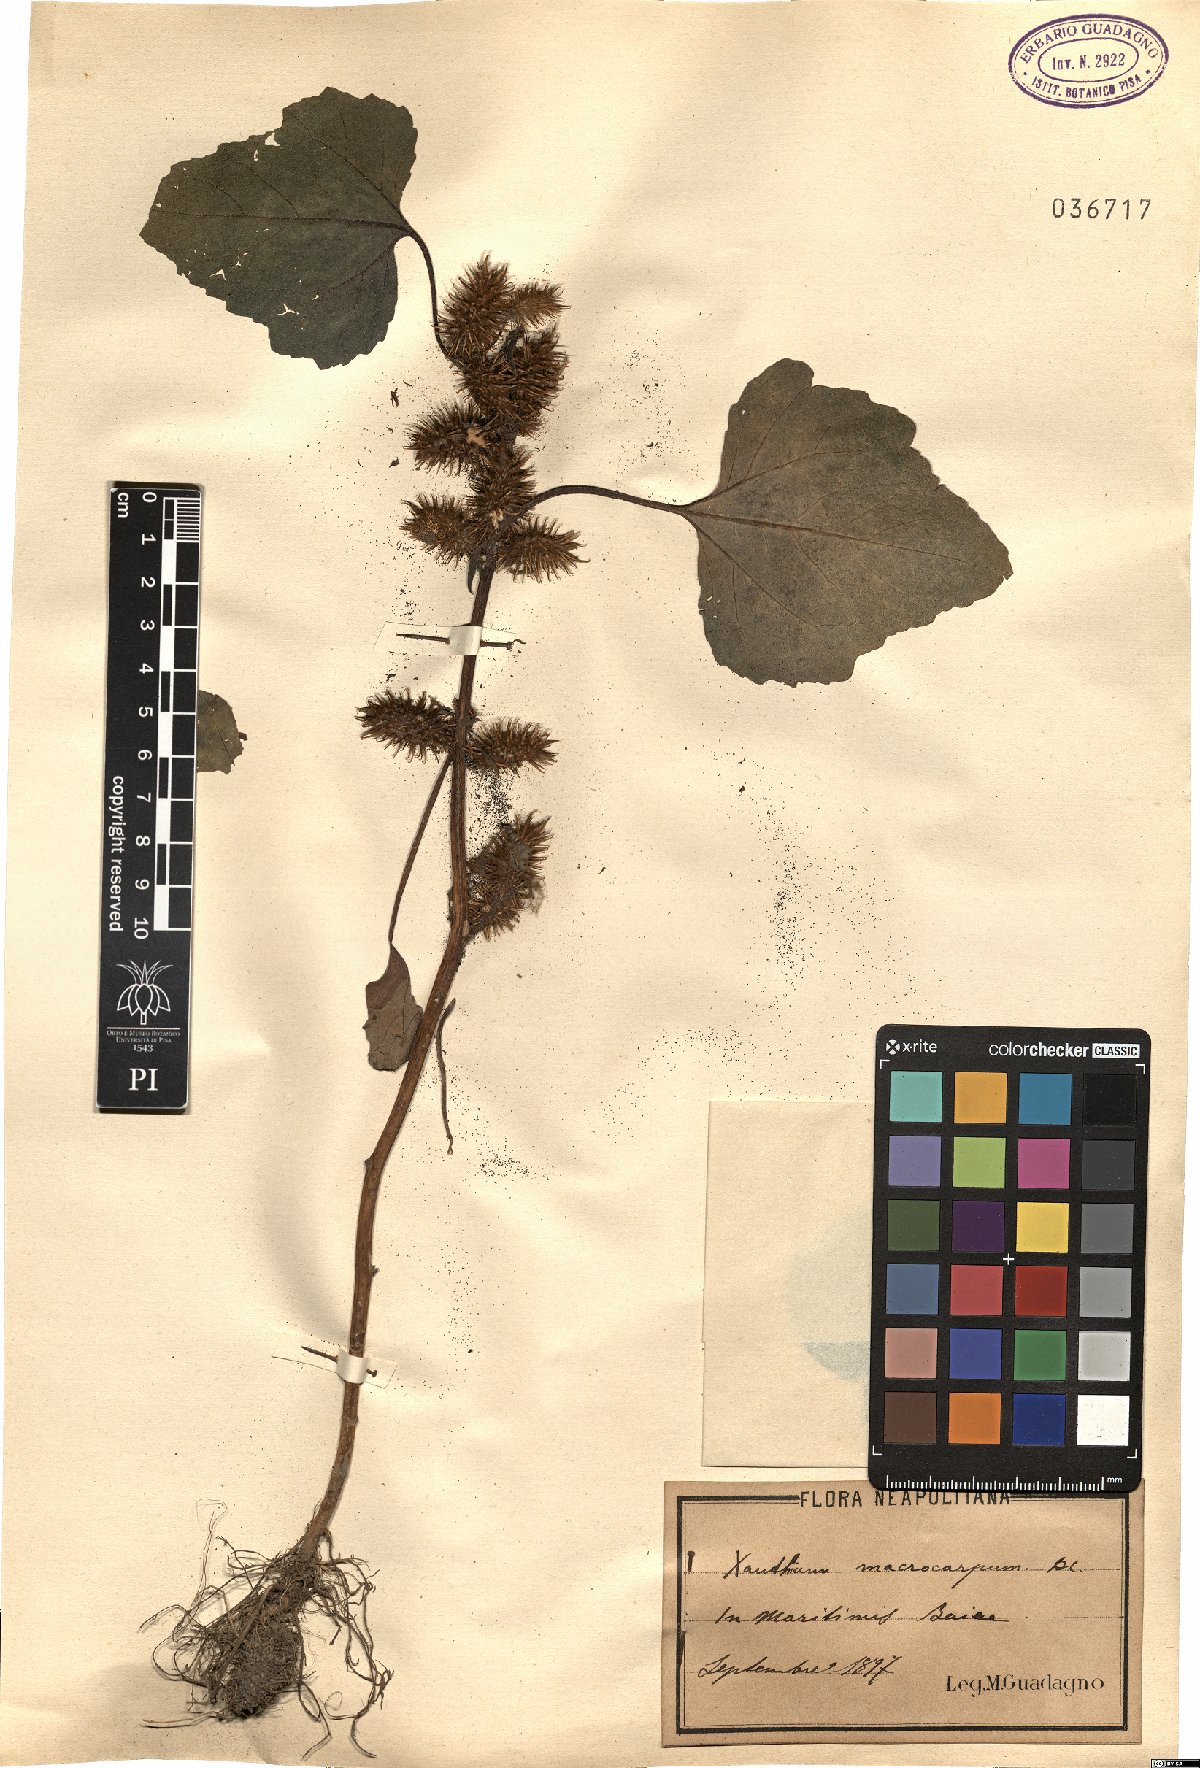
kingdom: Plantae
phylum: Tracheophyta
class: Magnoliopsida
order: Asterales
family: Asteraceae
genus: Xanthium
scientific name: Xanthium strumarium
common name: Rough cocklebur
